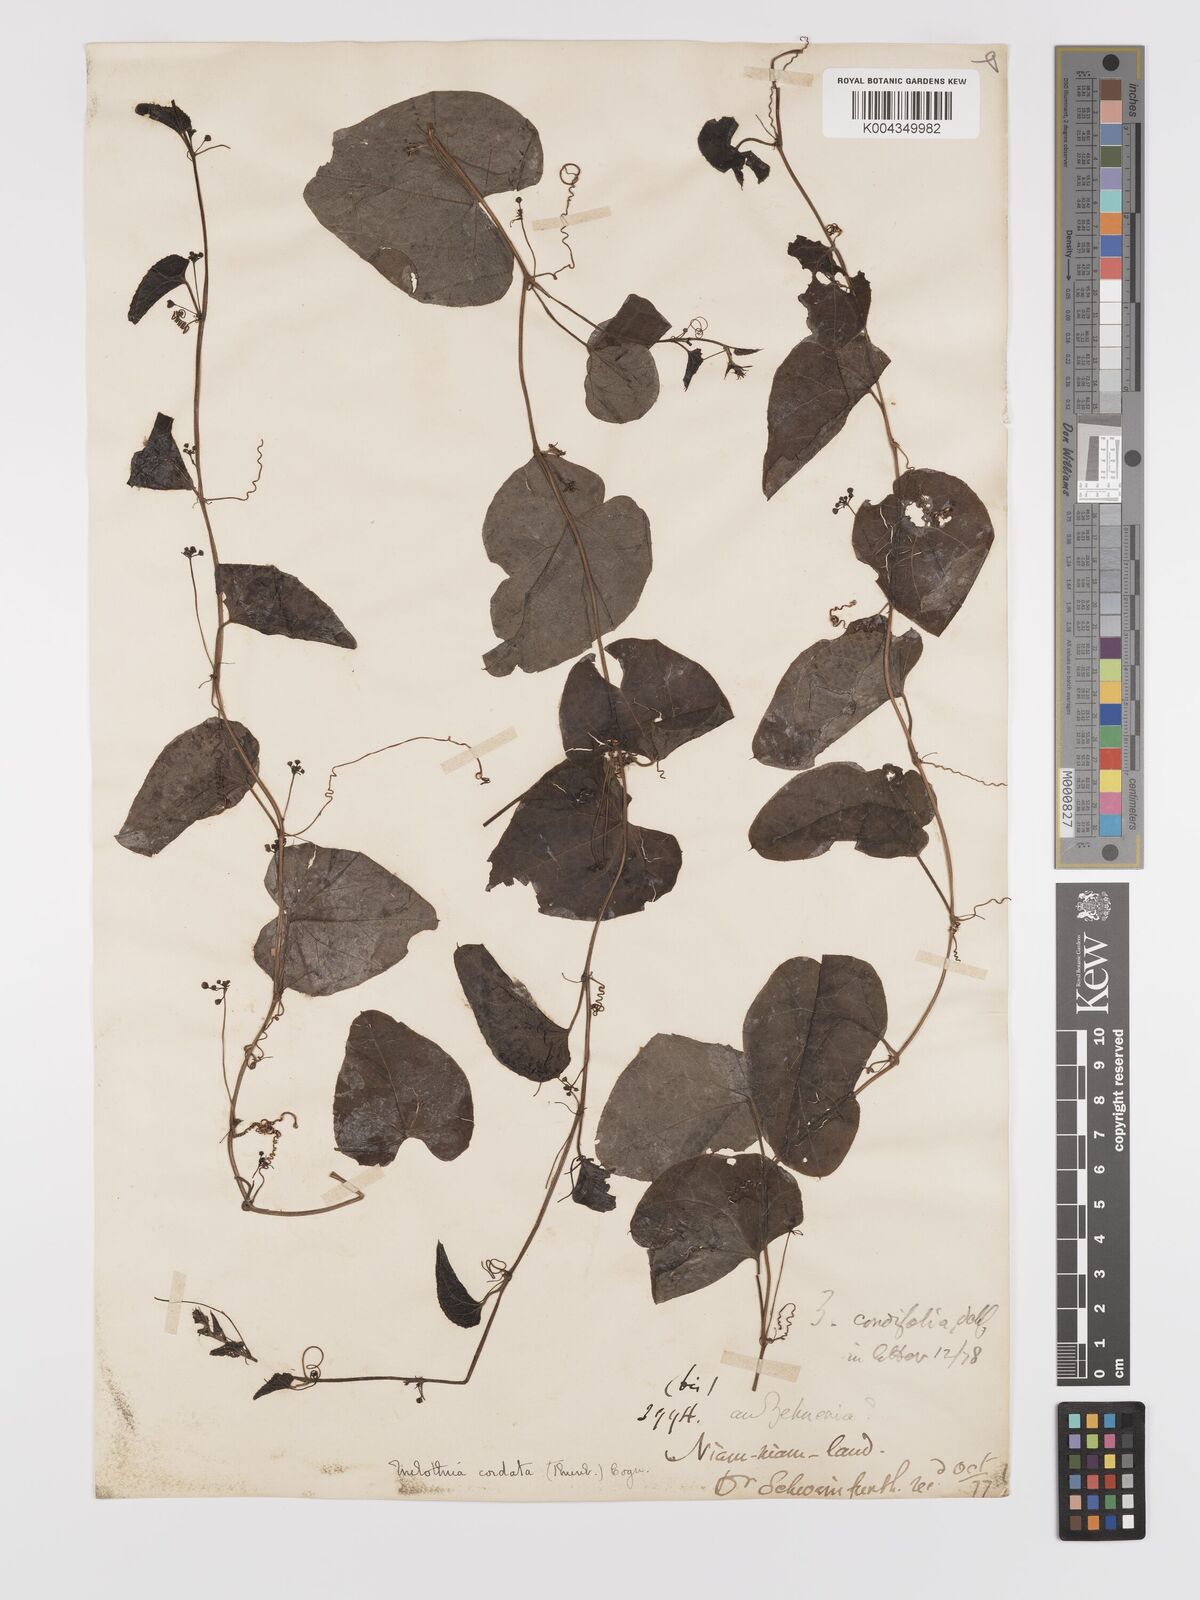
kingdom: Plantae
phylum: Tracheophyta
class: Magnoliopsida
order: Cucurbitales
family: Cucurbitaceae
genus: Zehneria
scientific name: Zehneria scabra
